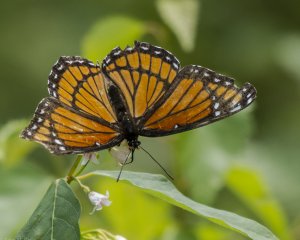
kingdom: Animalia
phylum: Arthropoda
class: Insecta
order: Lepidoptera
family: Nymphalidae
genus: Limenitis
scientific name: Limenitis archippus
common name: Viceroy
